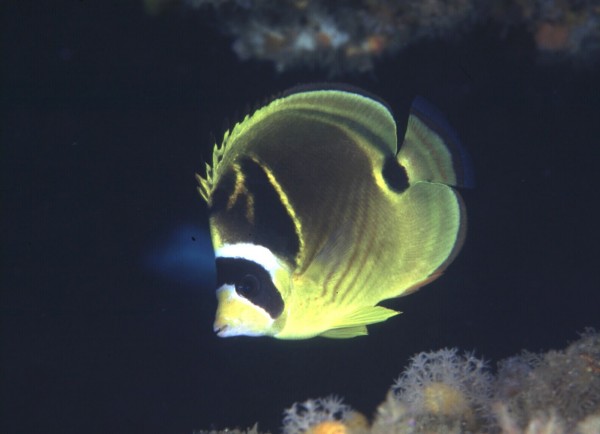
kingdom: Animalia
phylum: Chordata
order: Perciformes
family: Chaetodontidae
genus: Chaetodon
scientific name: Chaetodon lunula
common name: Raccoon butterflyfish
